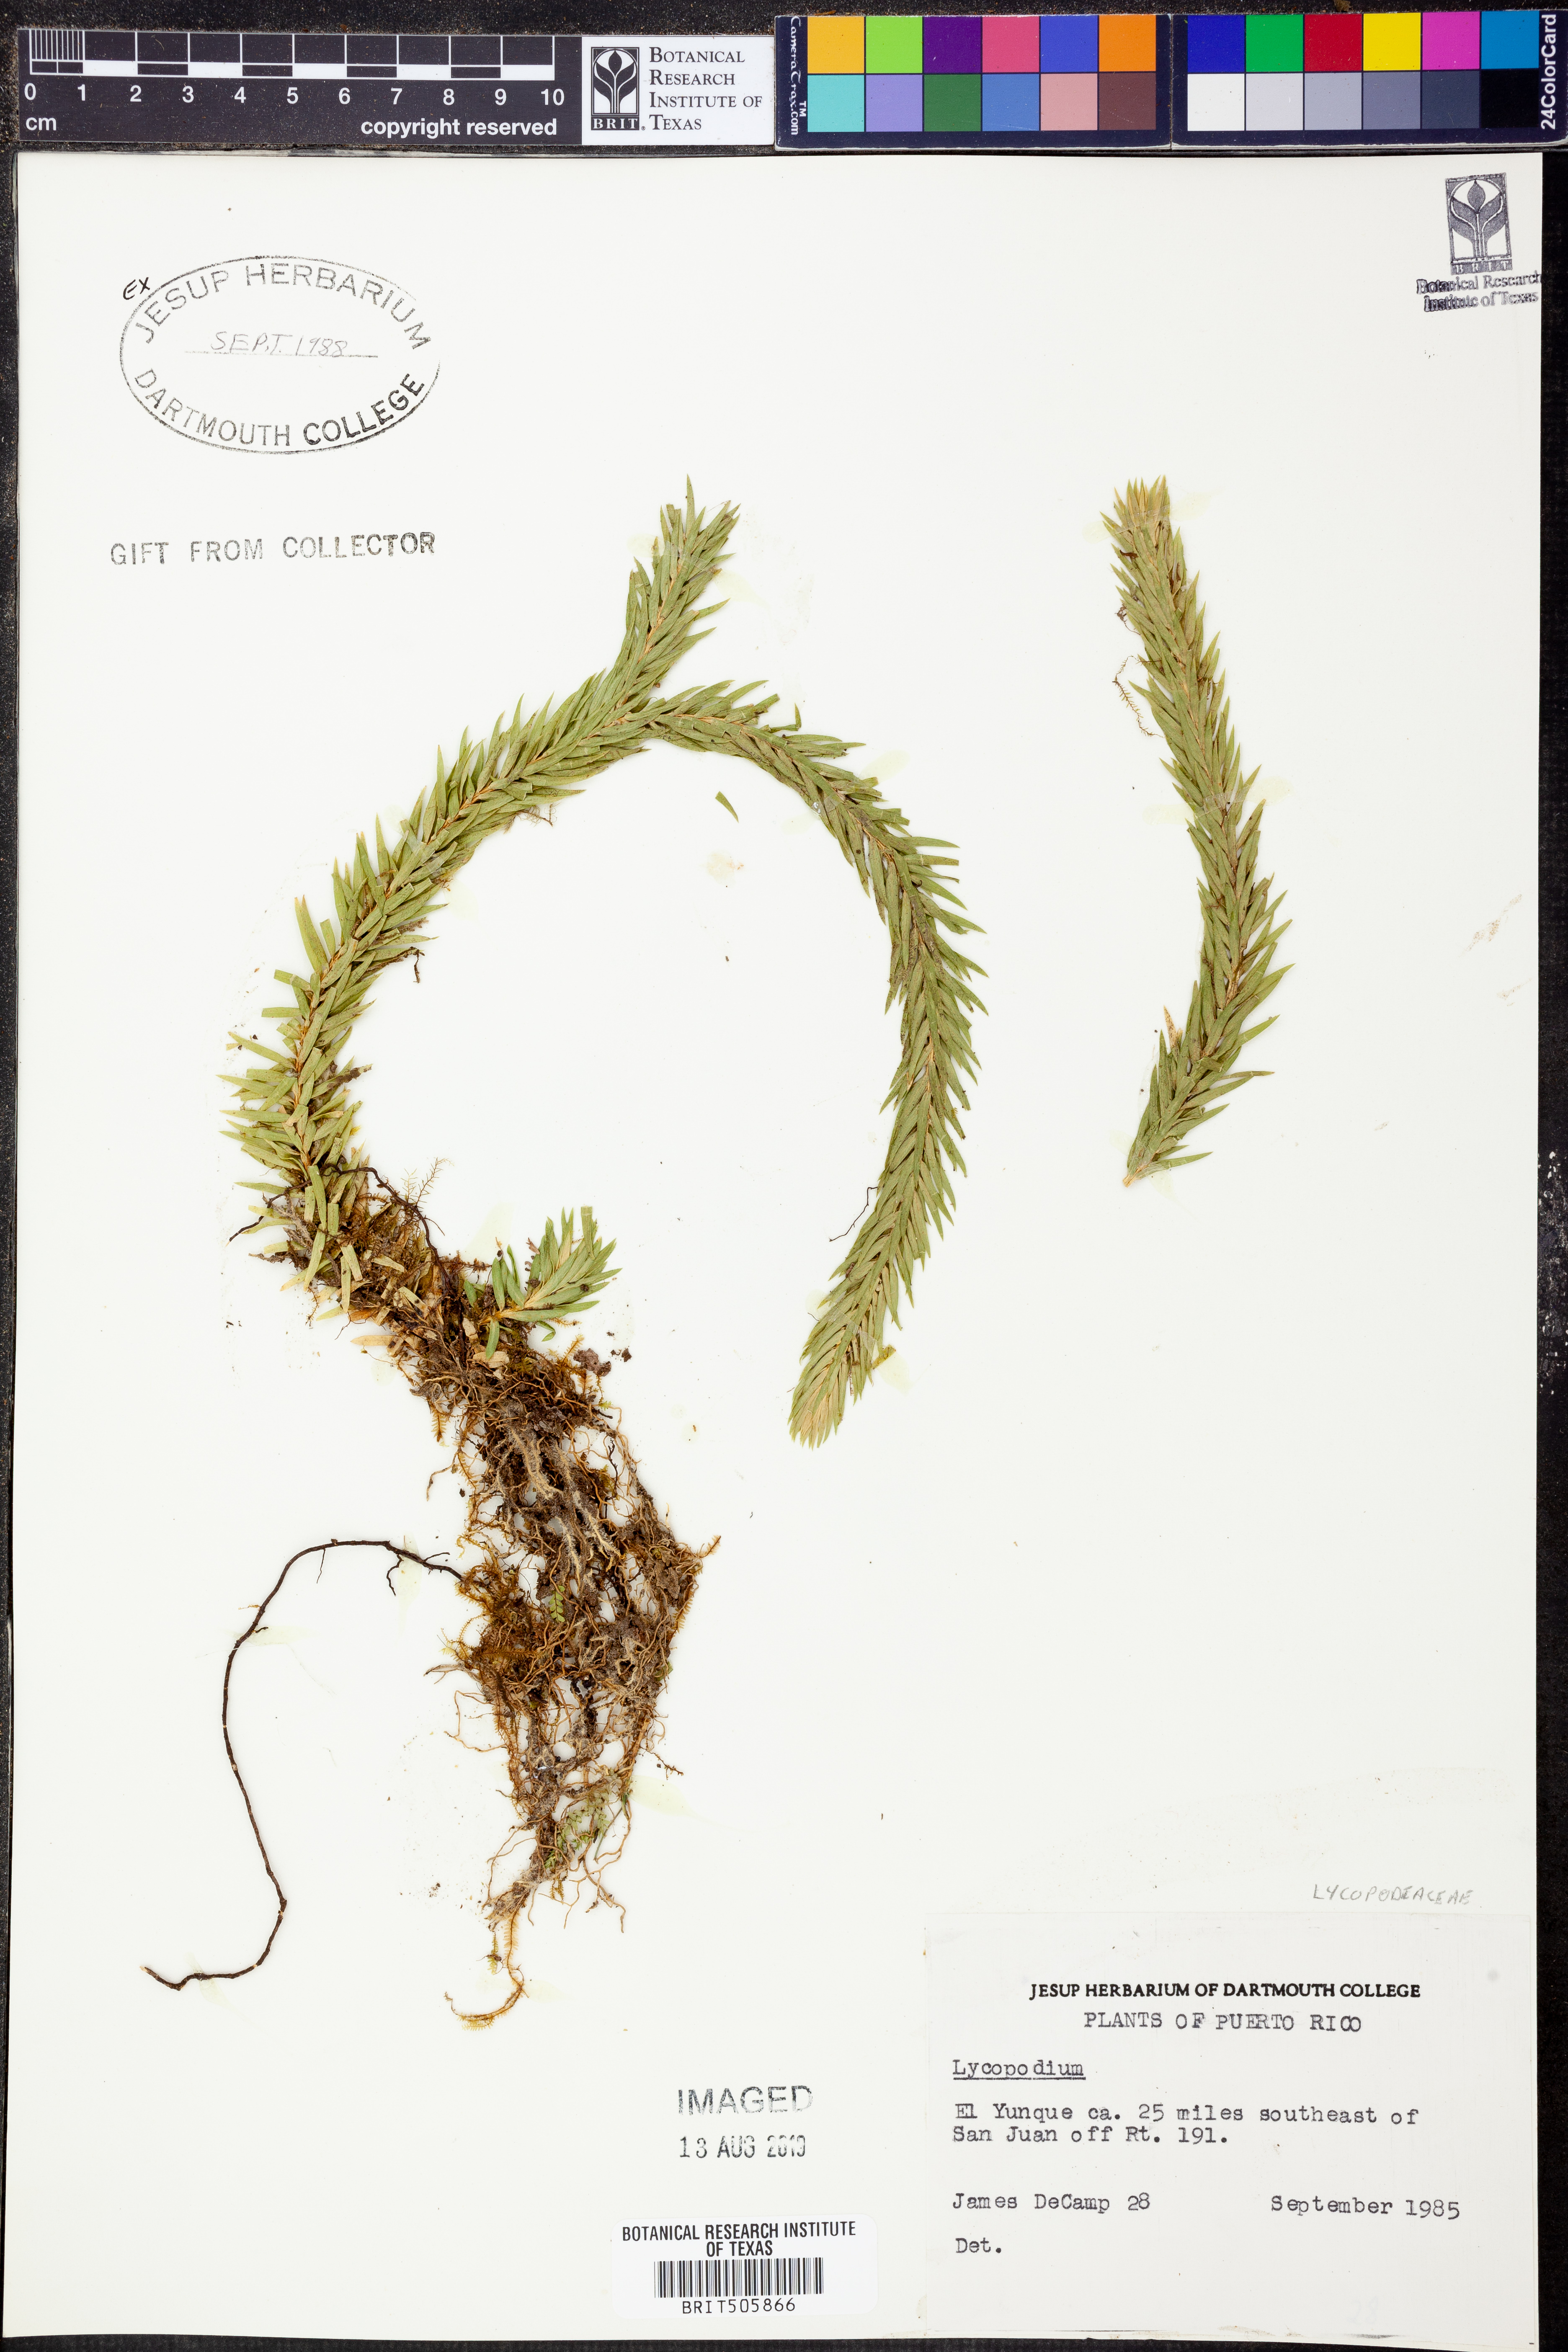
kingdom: Plantae
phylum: Tracheophyta
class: Lycopodiopsida
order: Lycopodiales
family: Lycopodiaceae
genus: Lycopodium
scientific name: Lycopodium
